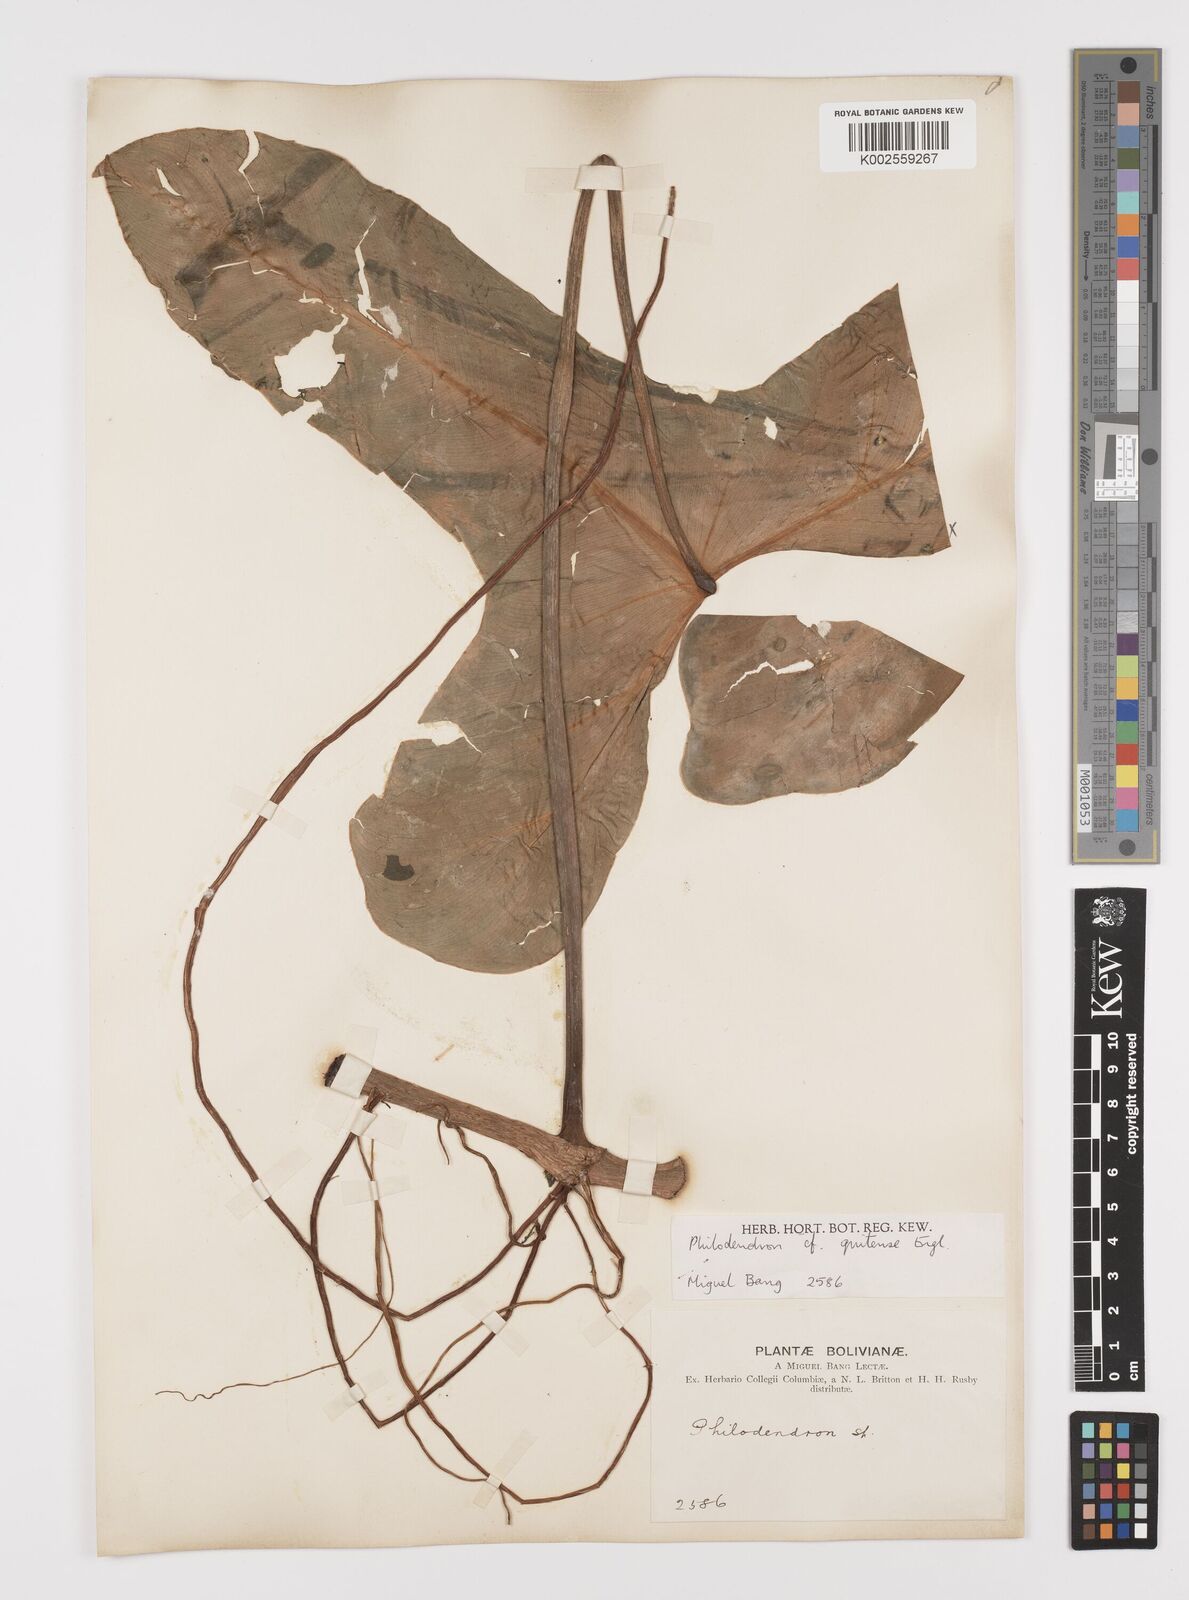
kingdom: Plantae
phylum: Tracheophyta
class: Liliopsida
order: Alismatales
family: Araceae
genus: Philodendron
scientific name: Philodendron quitense
